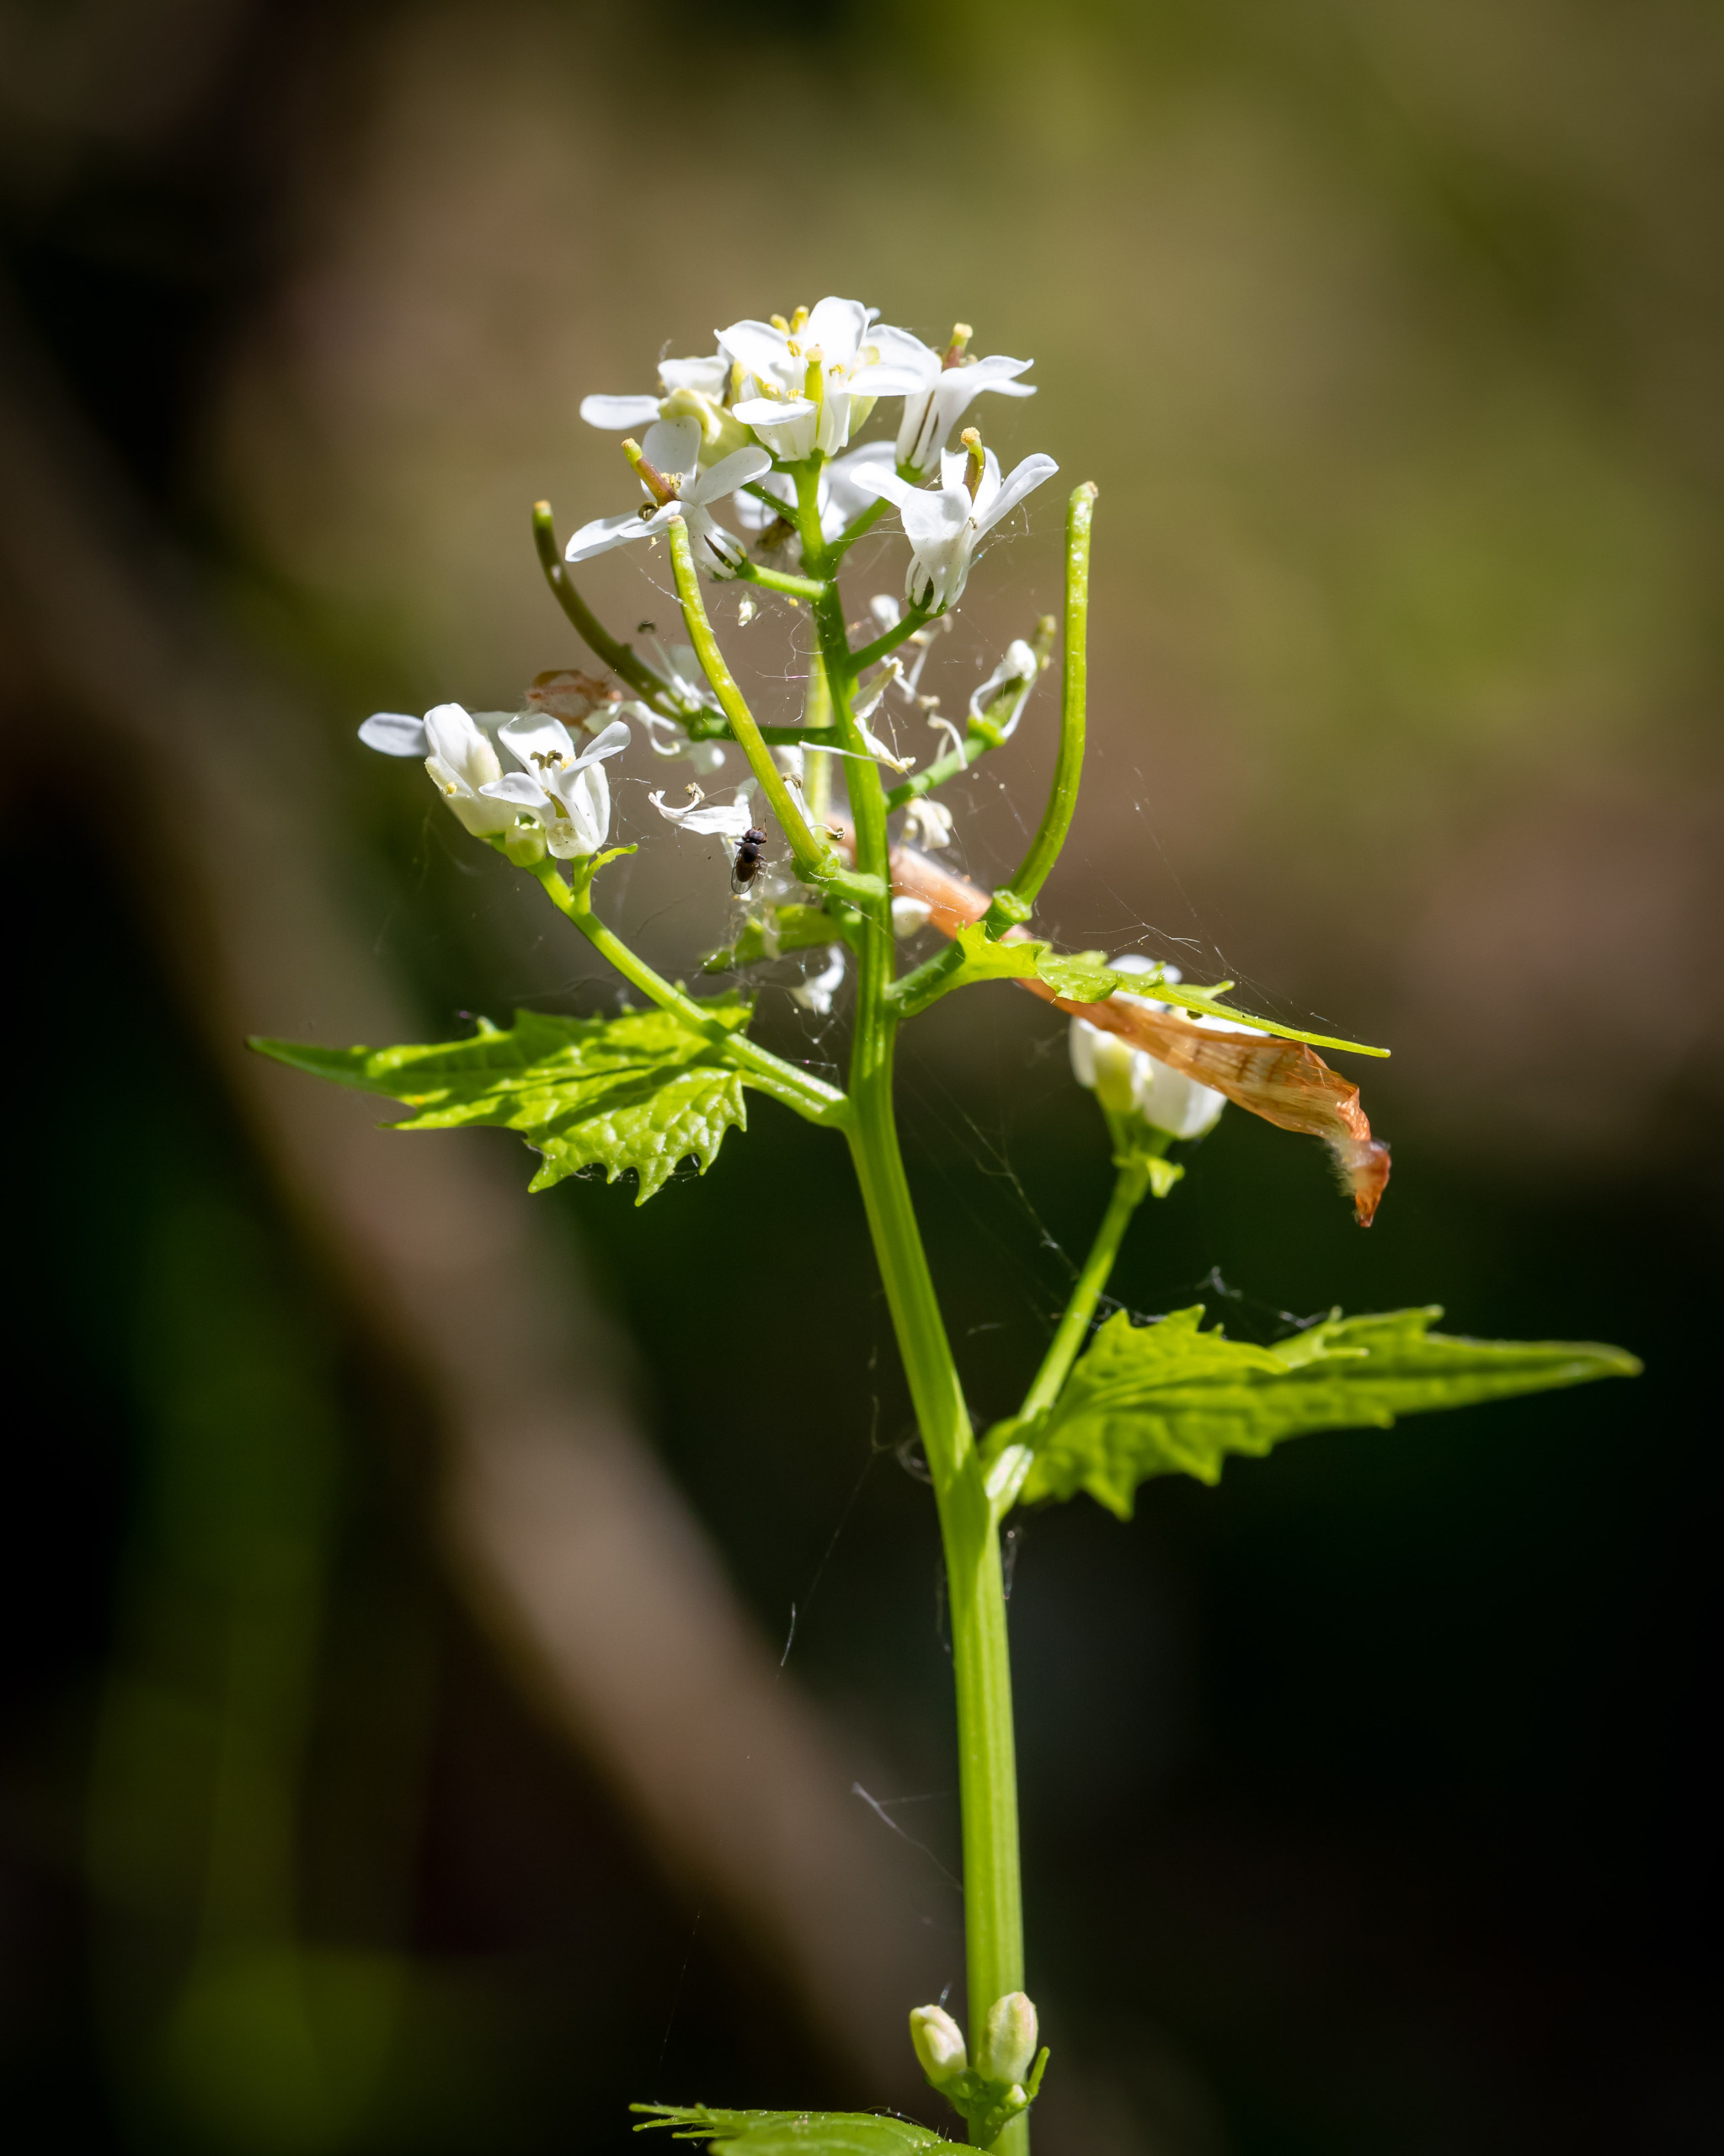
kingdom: Plantae
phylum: Tracheophyta
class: Magnoliopsida
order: Brassicales
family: Brassicaceae
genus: Alliaria
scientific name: Alliaria petiolata
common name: Løgkarse
